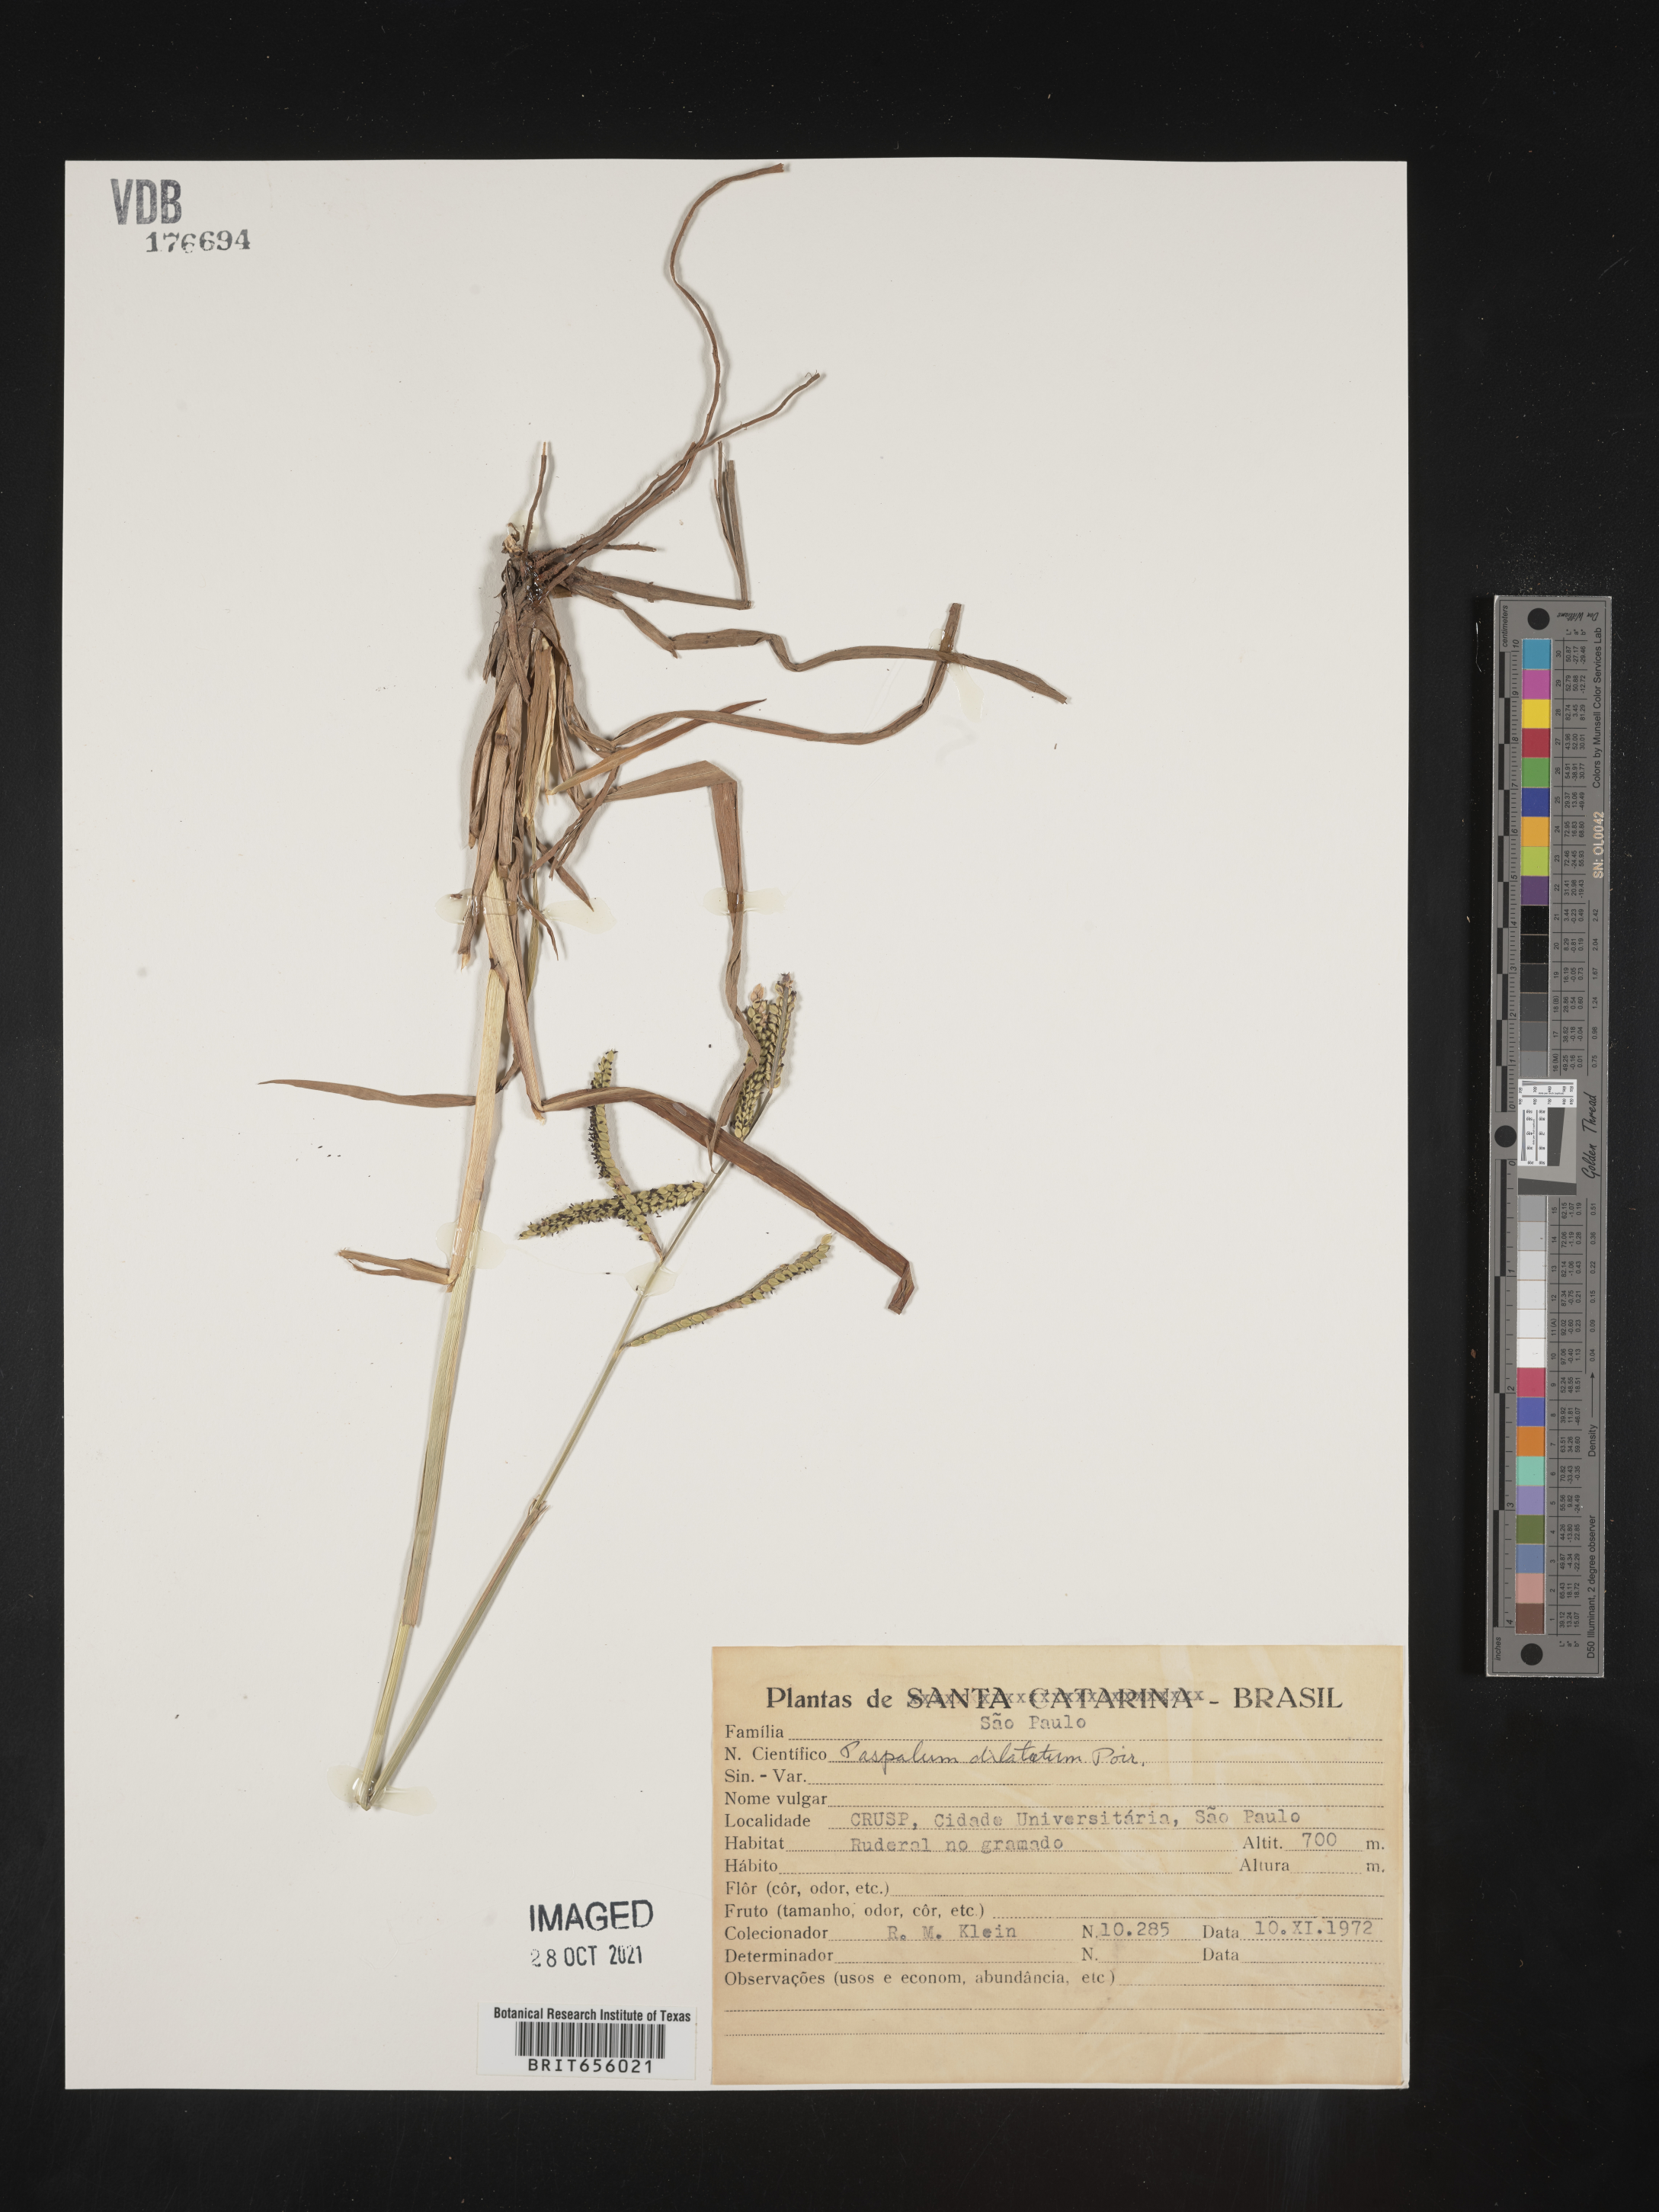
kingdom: Plantae
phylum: Tracheophyta
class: Liliopsida
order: Poales
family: Poaceae
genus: Paspalum
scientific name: Paspalum
